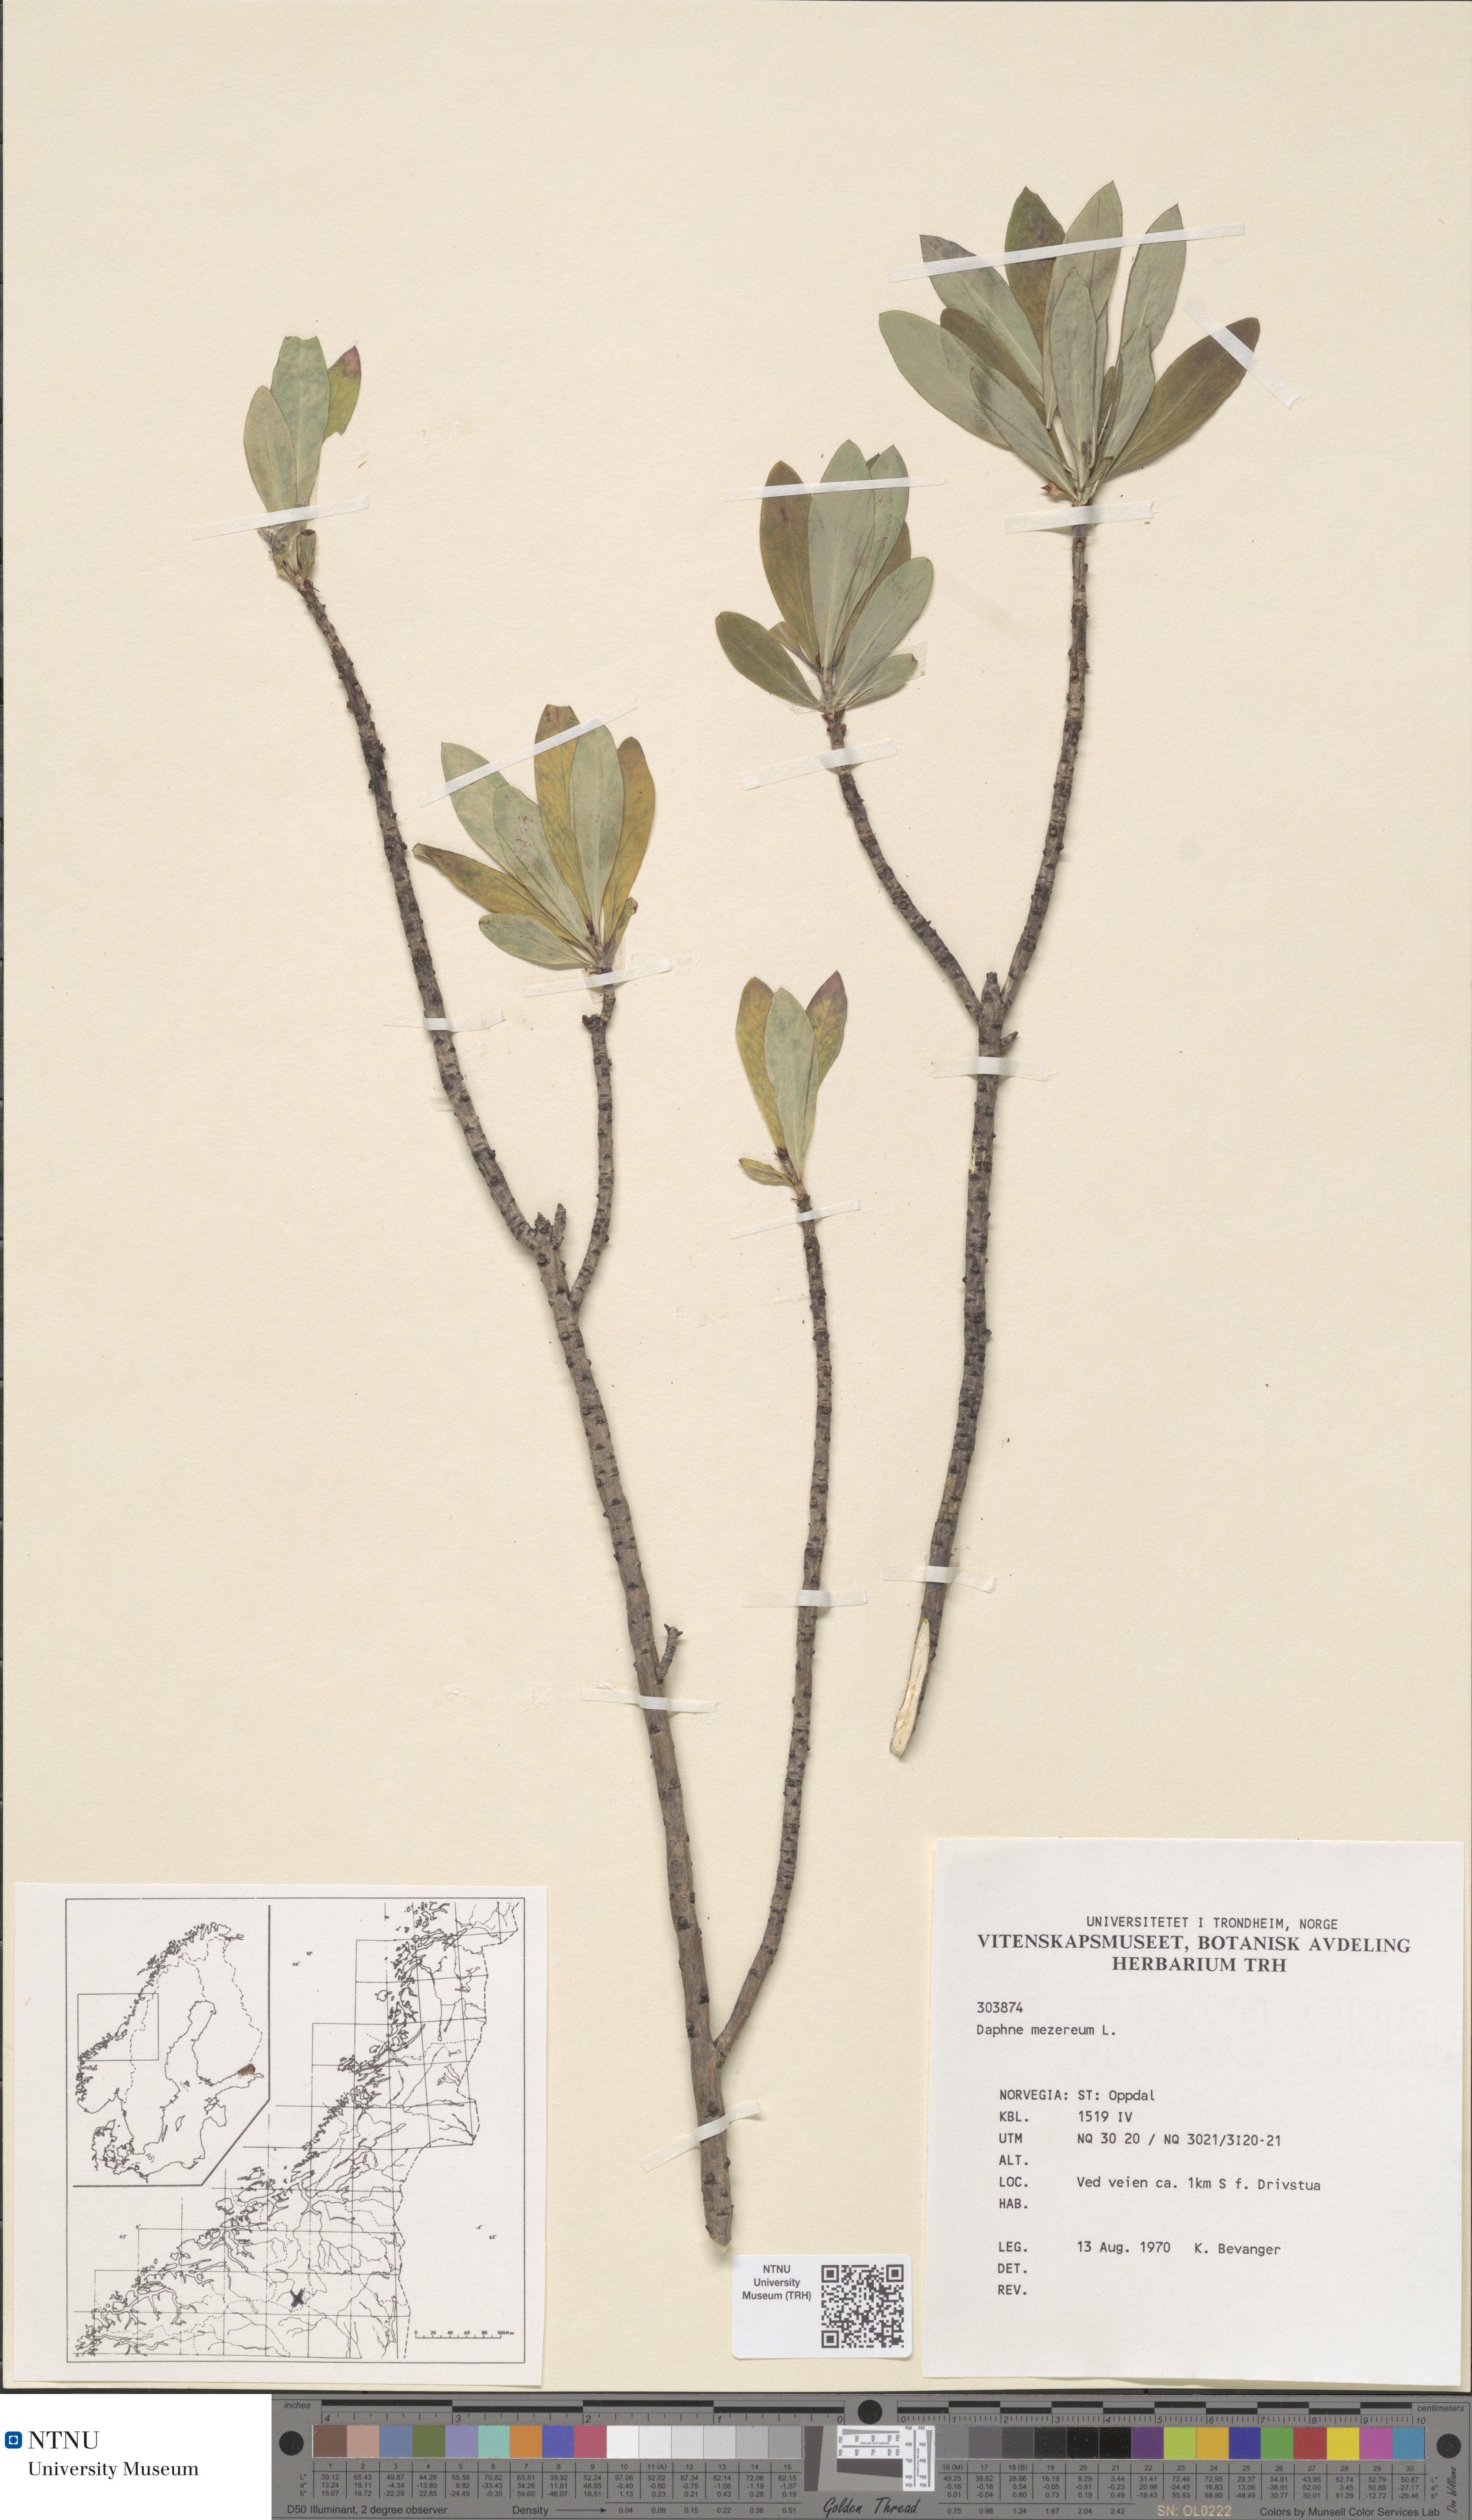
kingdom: Plantae
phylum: Tracheophyta
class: Magnoliopsida
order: Malvales
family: Thymelaeaceae
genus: Daphne
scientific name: Daphne mezereum
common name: Mezereon
